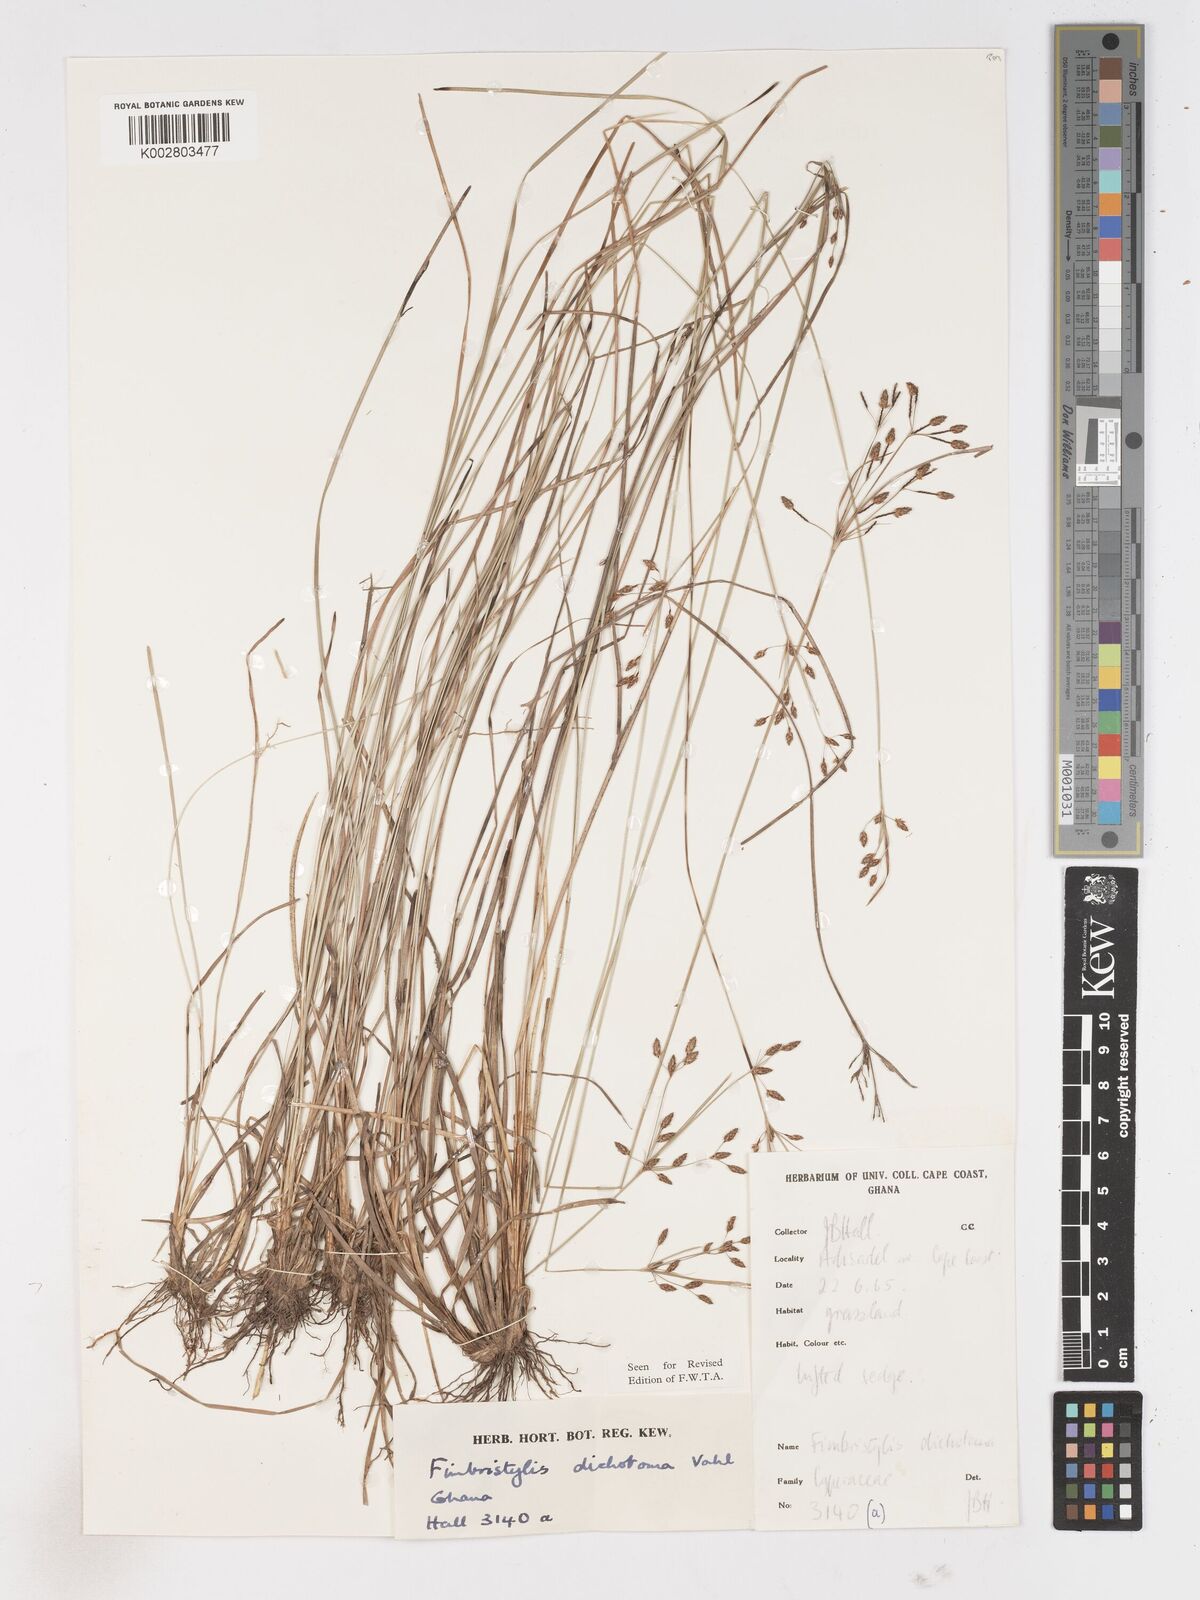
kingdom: Plantae
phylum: Tracheophyta
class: Liliopsida
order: Poales
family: Cyperaceae
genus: Fimbristylis
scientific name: Fimbristylis dichotoma
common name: Forked fimbry
